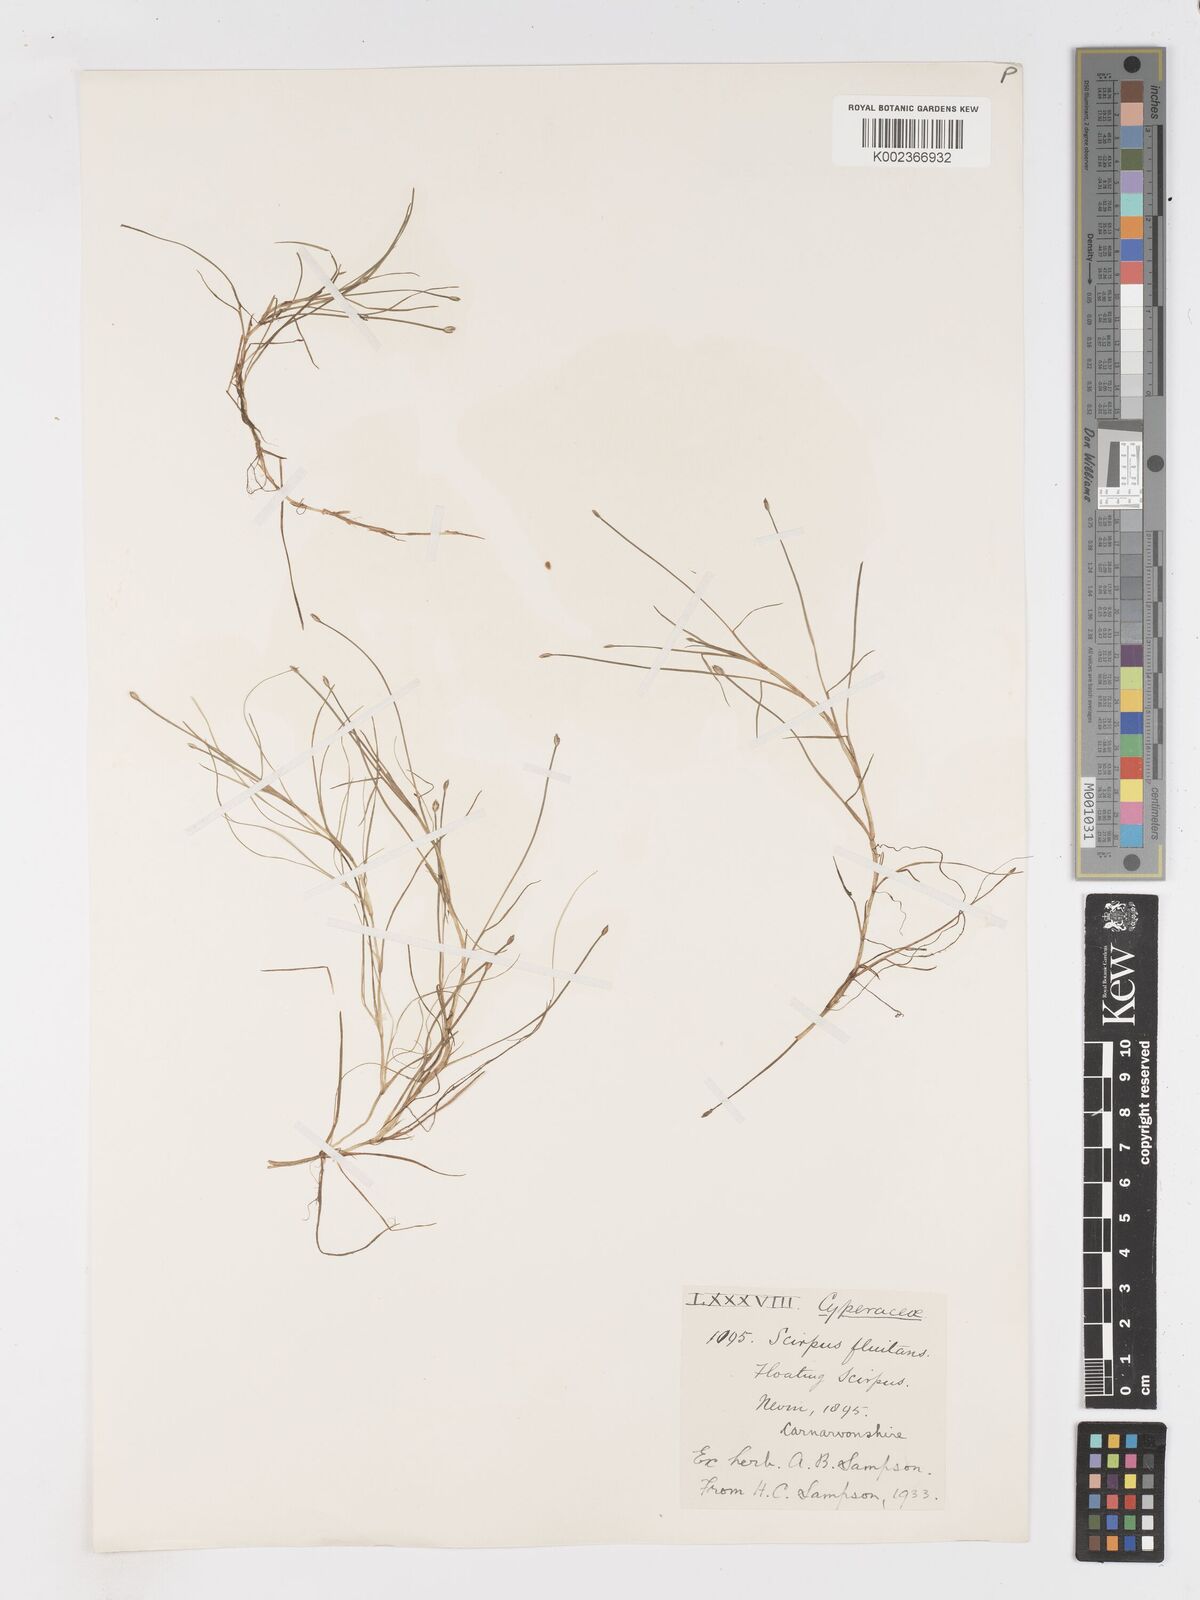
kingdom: Plantae
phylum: Tracheophyta
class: Liliopsida
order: Poales
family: Cyperaceae
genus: Isolepis
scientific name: Isolepis fluitans
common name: Floating club-rush
